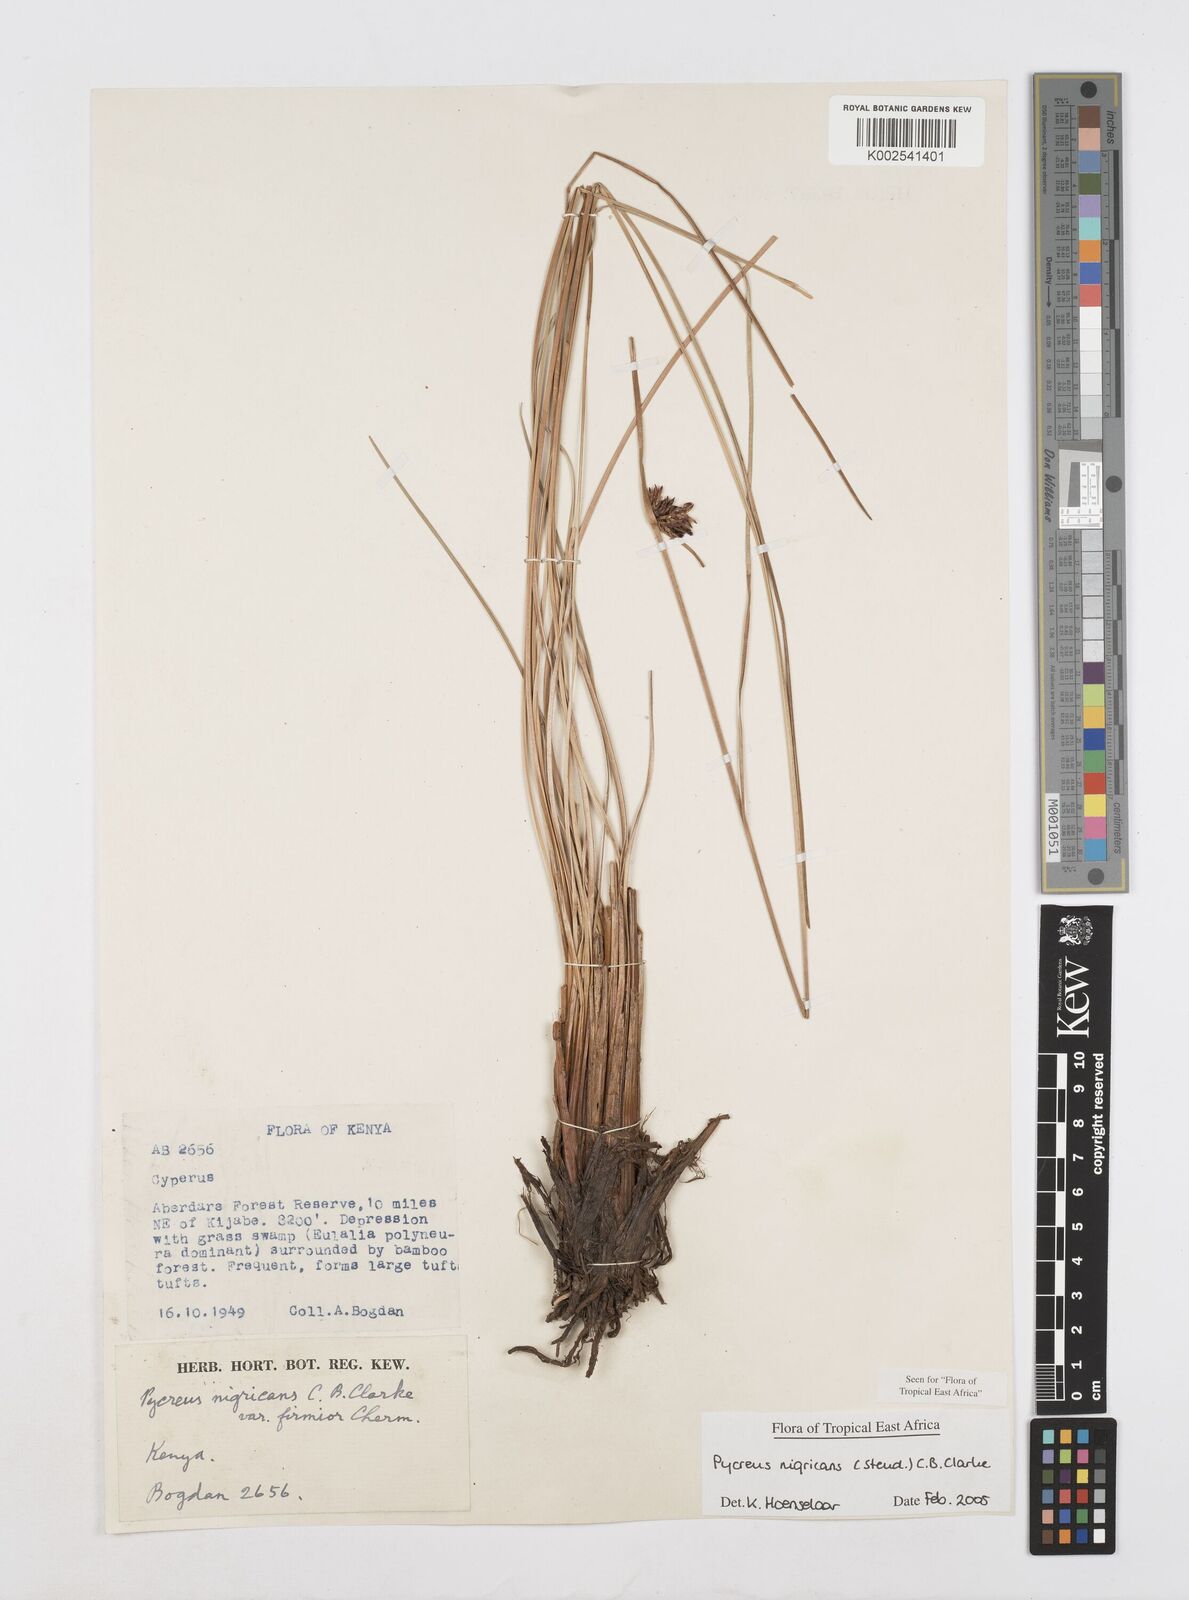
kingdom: Plantae
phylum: Tracheophyta
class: Liliopsida
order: Poales
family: Cyperaceae
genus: Cyperus
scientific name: Cyperus nigricans
